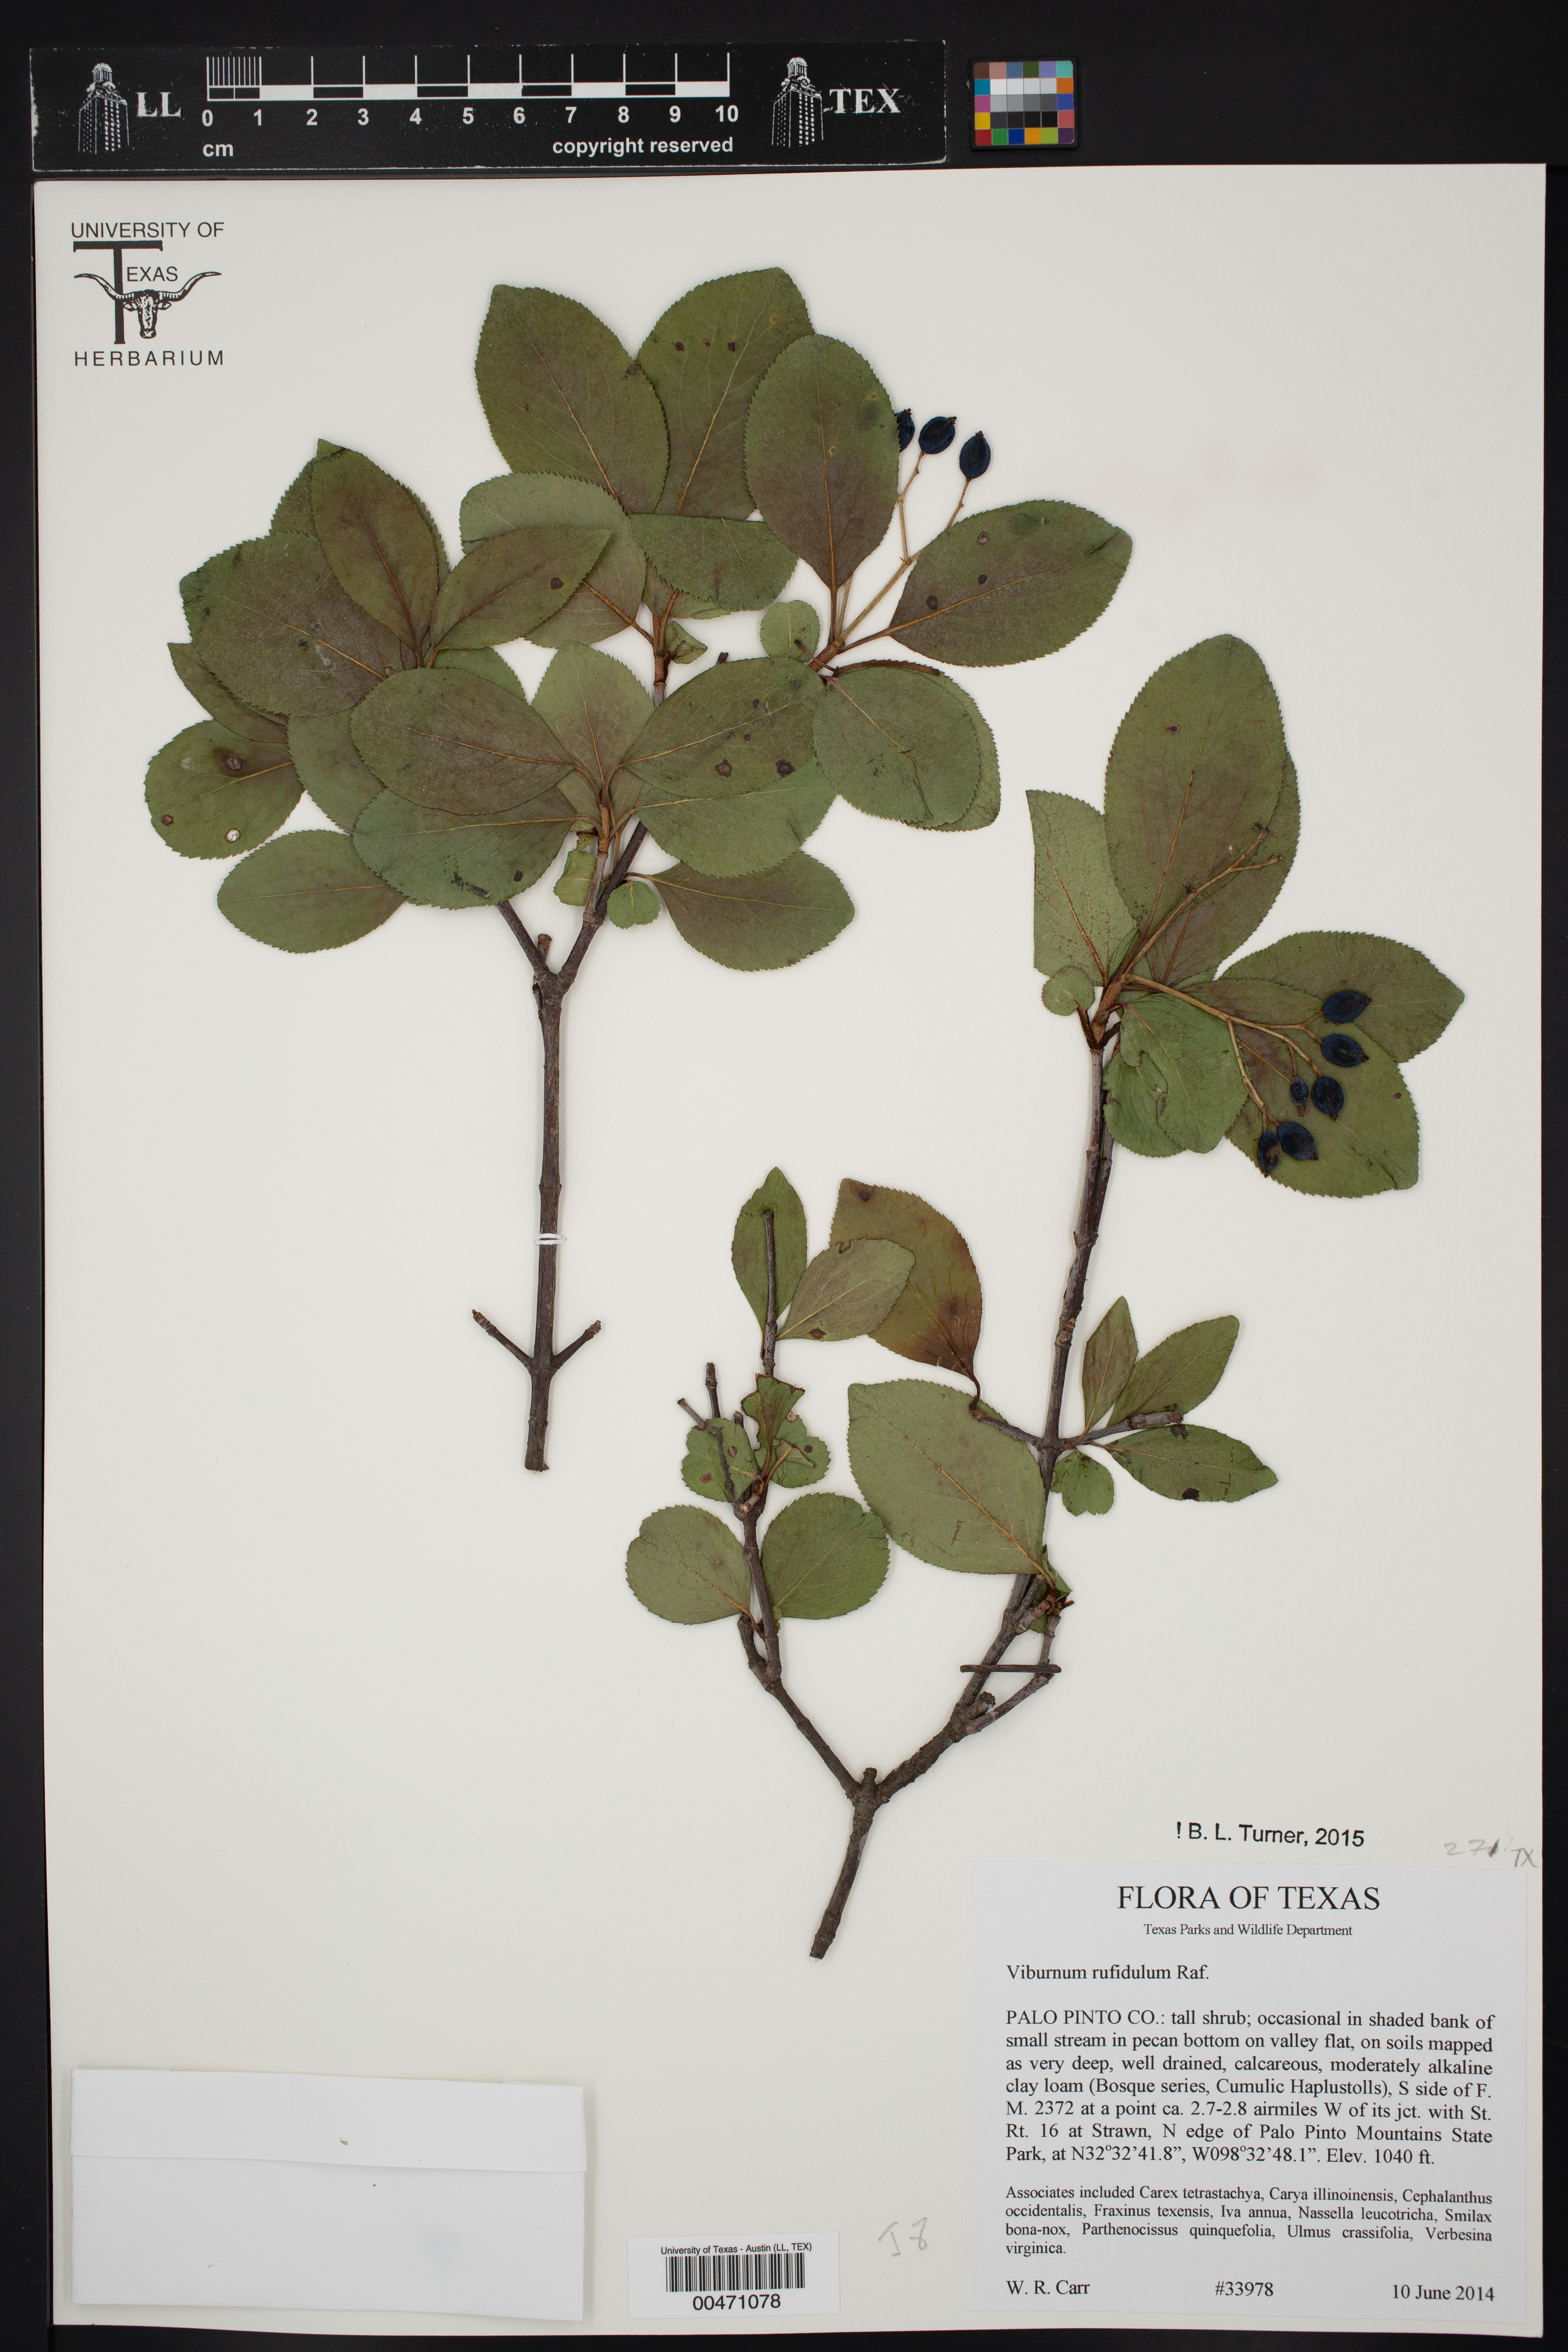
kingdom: Plantae
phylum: Tracheophyta
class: Magnoliopsida
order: Dipsacales
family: Viburnaceae
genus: Viburnum
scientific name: Viburnum rufidulum
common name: Blue haw
